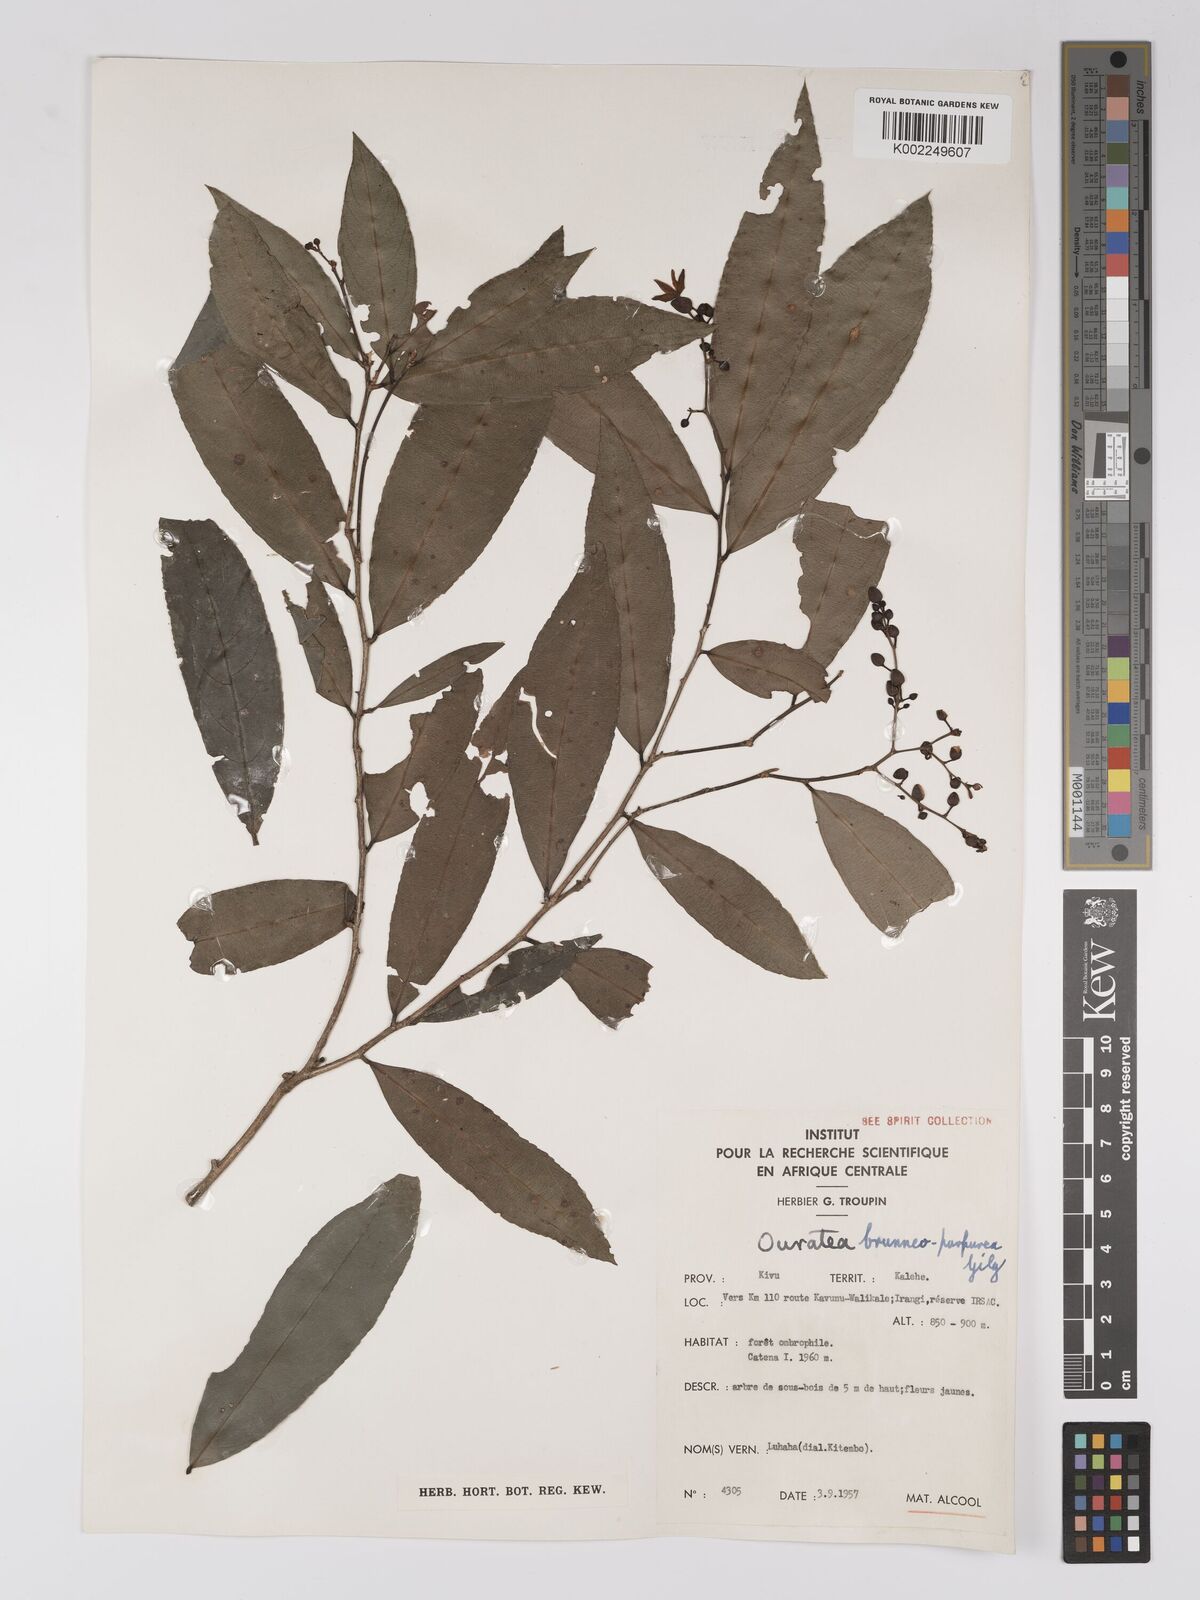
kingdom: Plantae
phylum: Tracheophyta
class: Magnoliopsida
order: Malpighiales
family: Ochnaceae
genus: Campylospermum
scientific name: Campylospermum reticulatum
